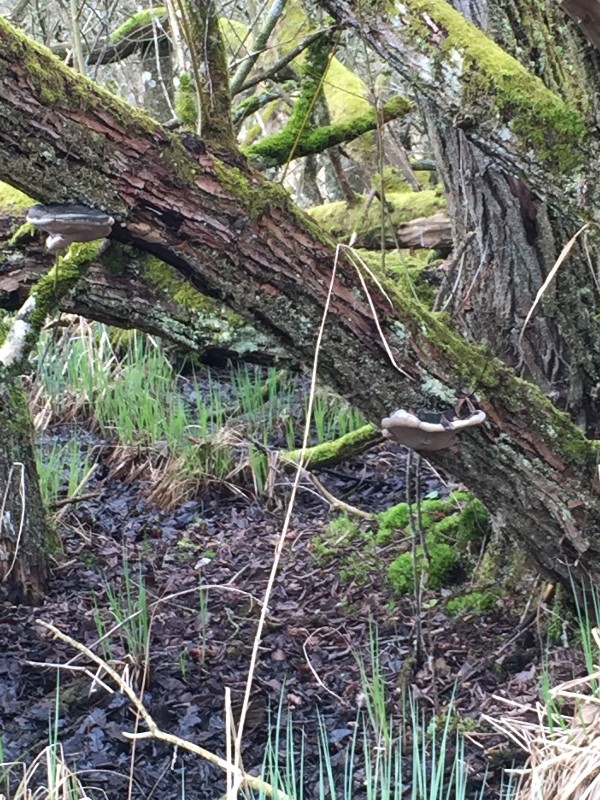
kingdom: Fungi
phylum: Basidiomycota
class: Agaricomycetes
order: Hymenochaetales
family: Hymenochaetaceae
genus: Phellinus
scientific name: Phellinus igniarius
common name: almindelig ildporesvamp
